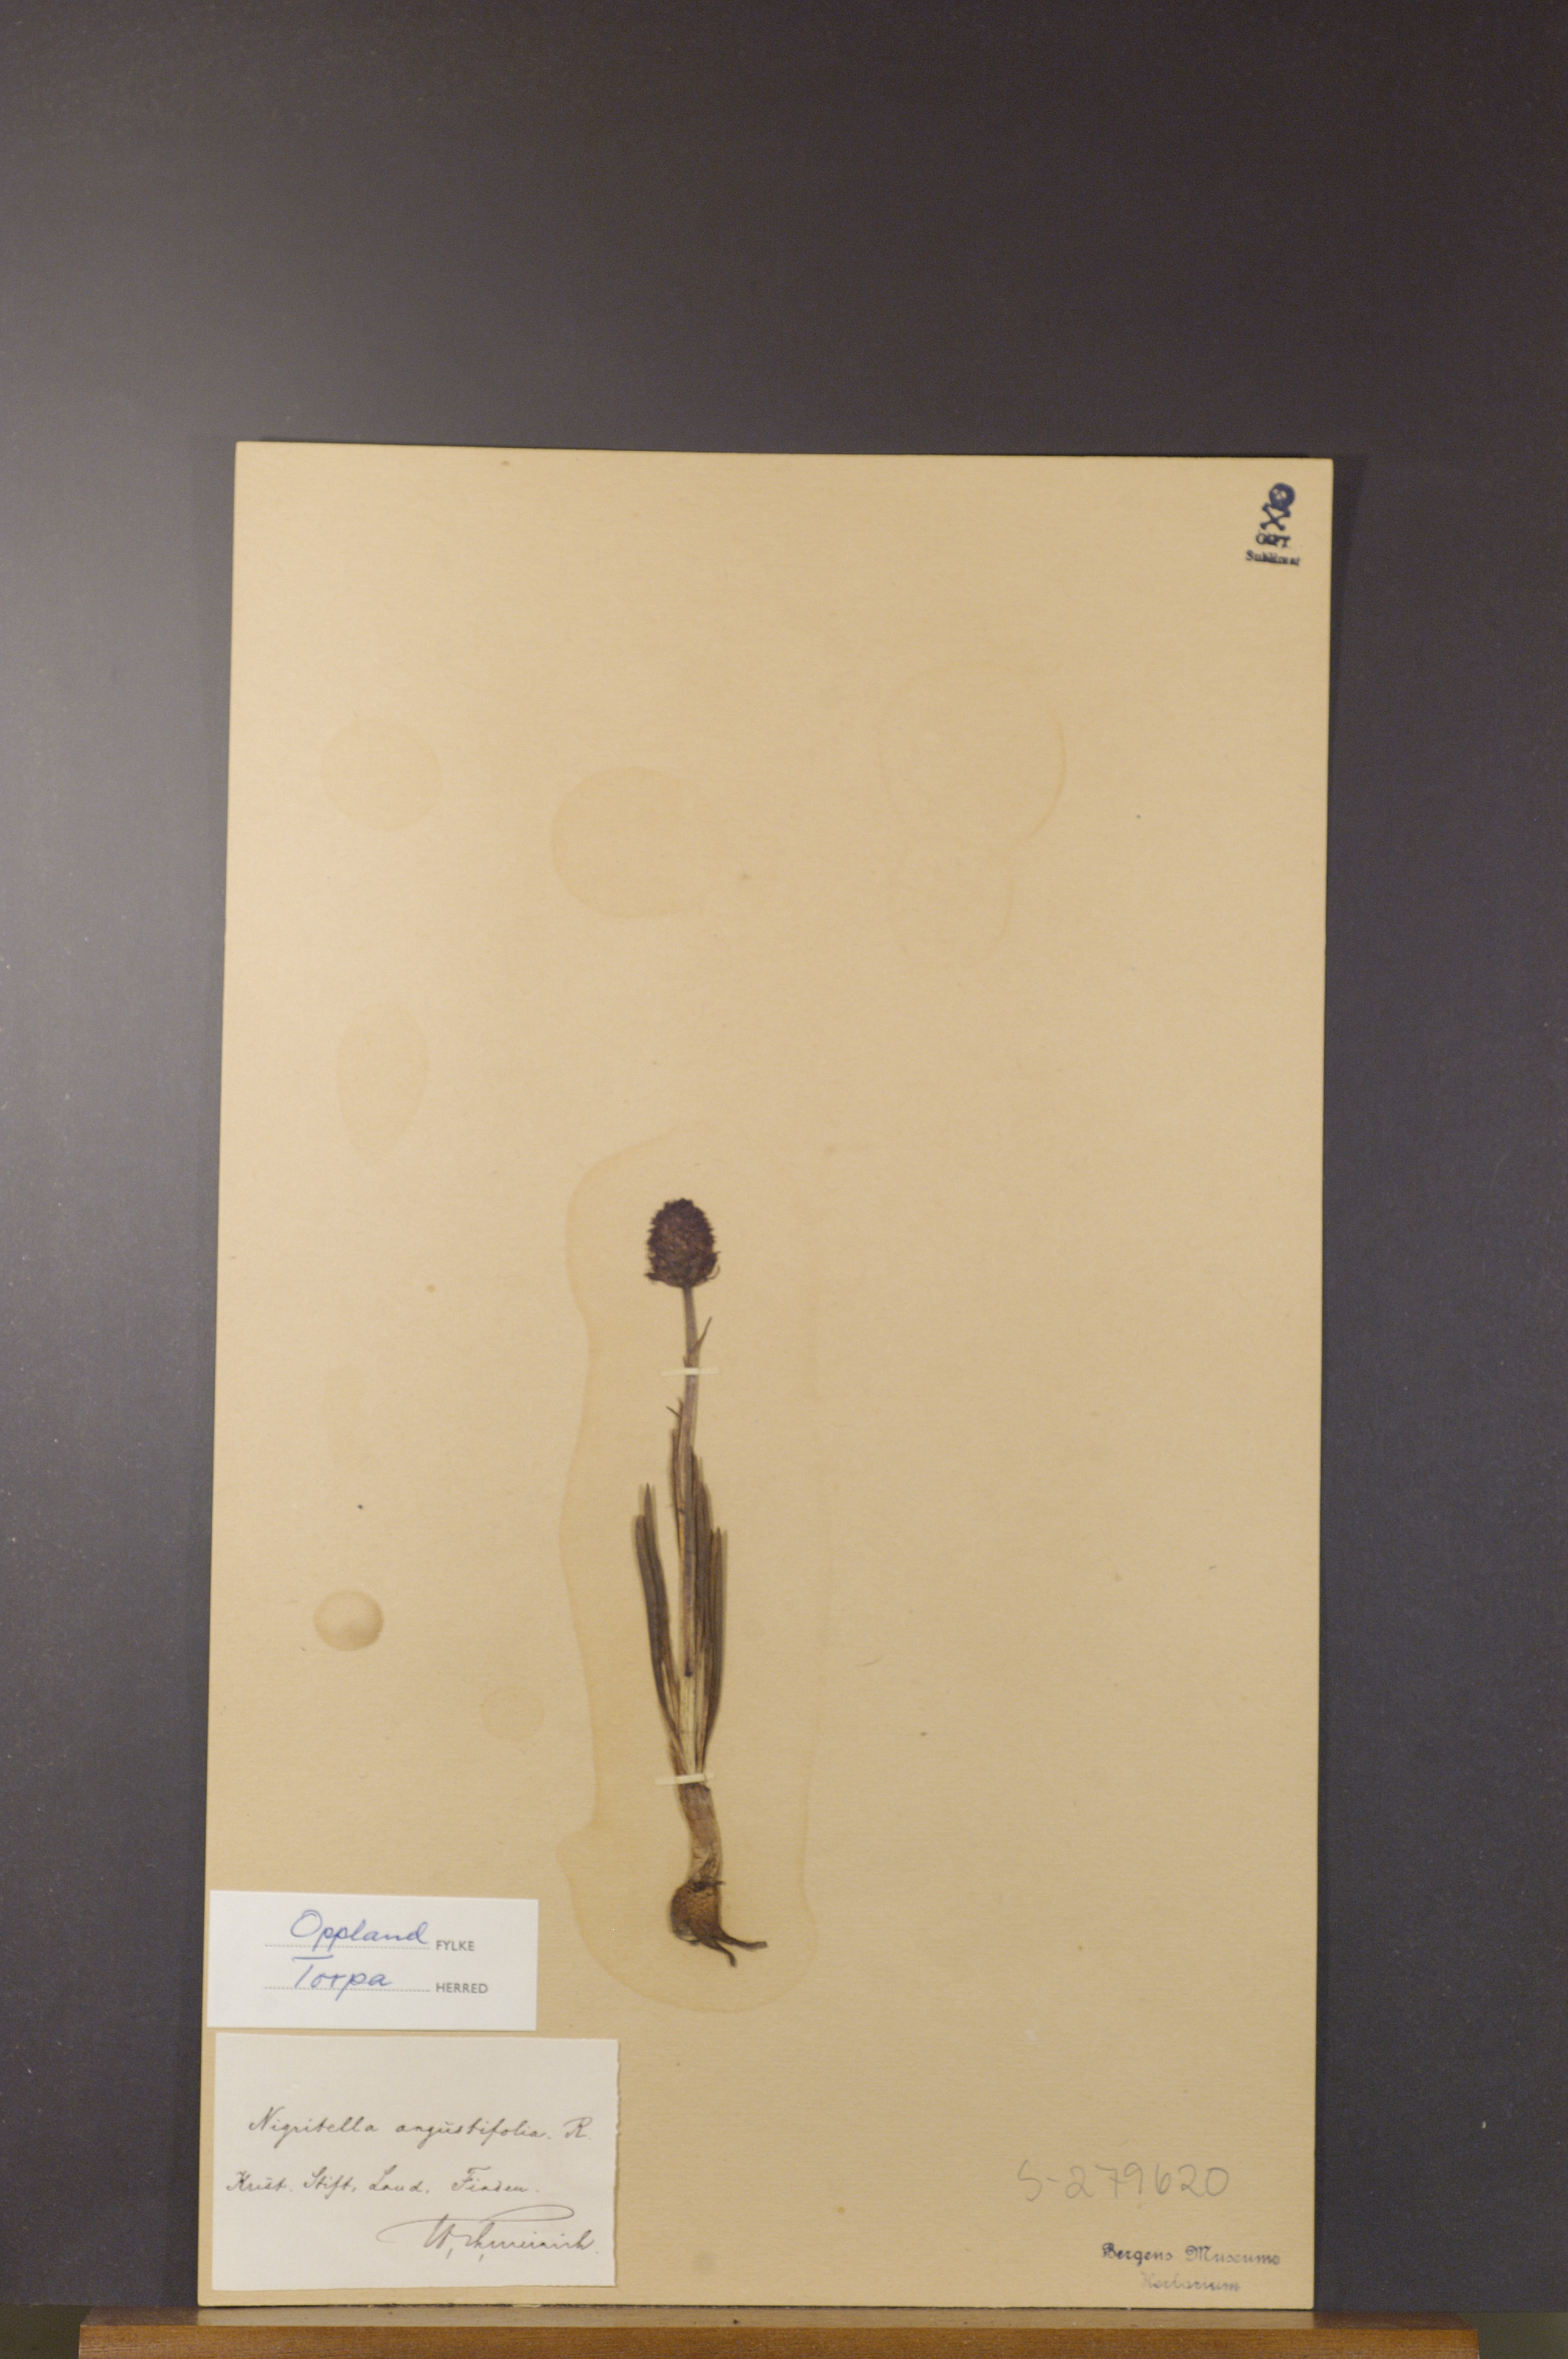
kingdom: Plantae
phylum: Tracheophyta
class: Liliopsida
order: Asparagales
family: Orchidaceae
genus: Gymnadenia
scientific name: Gymnadenia nigra
